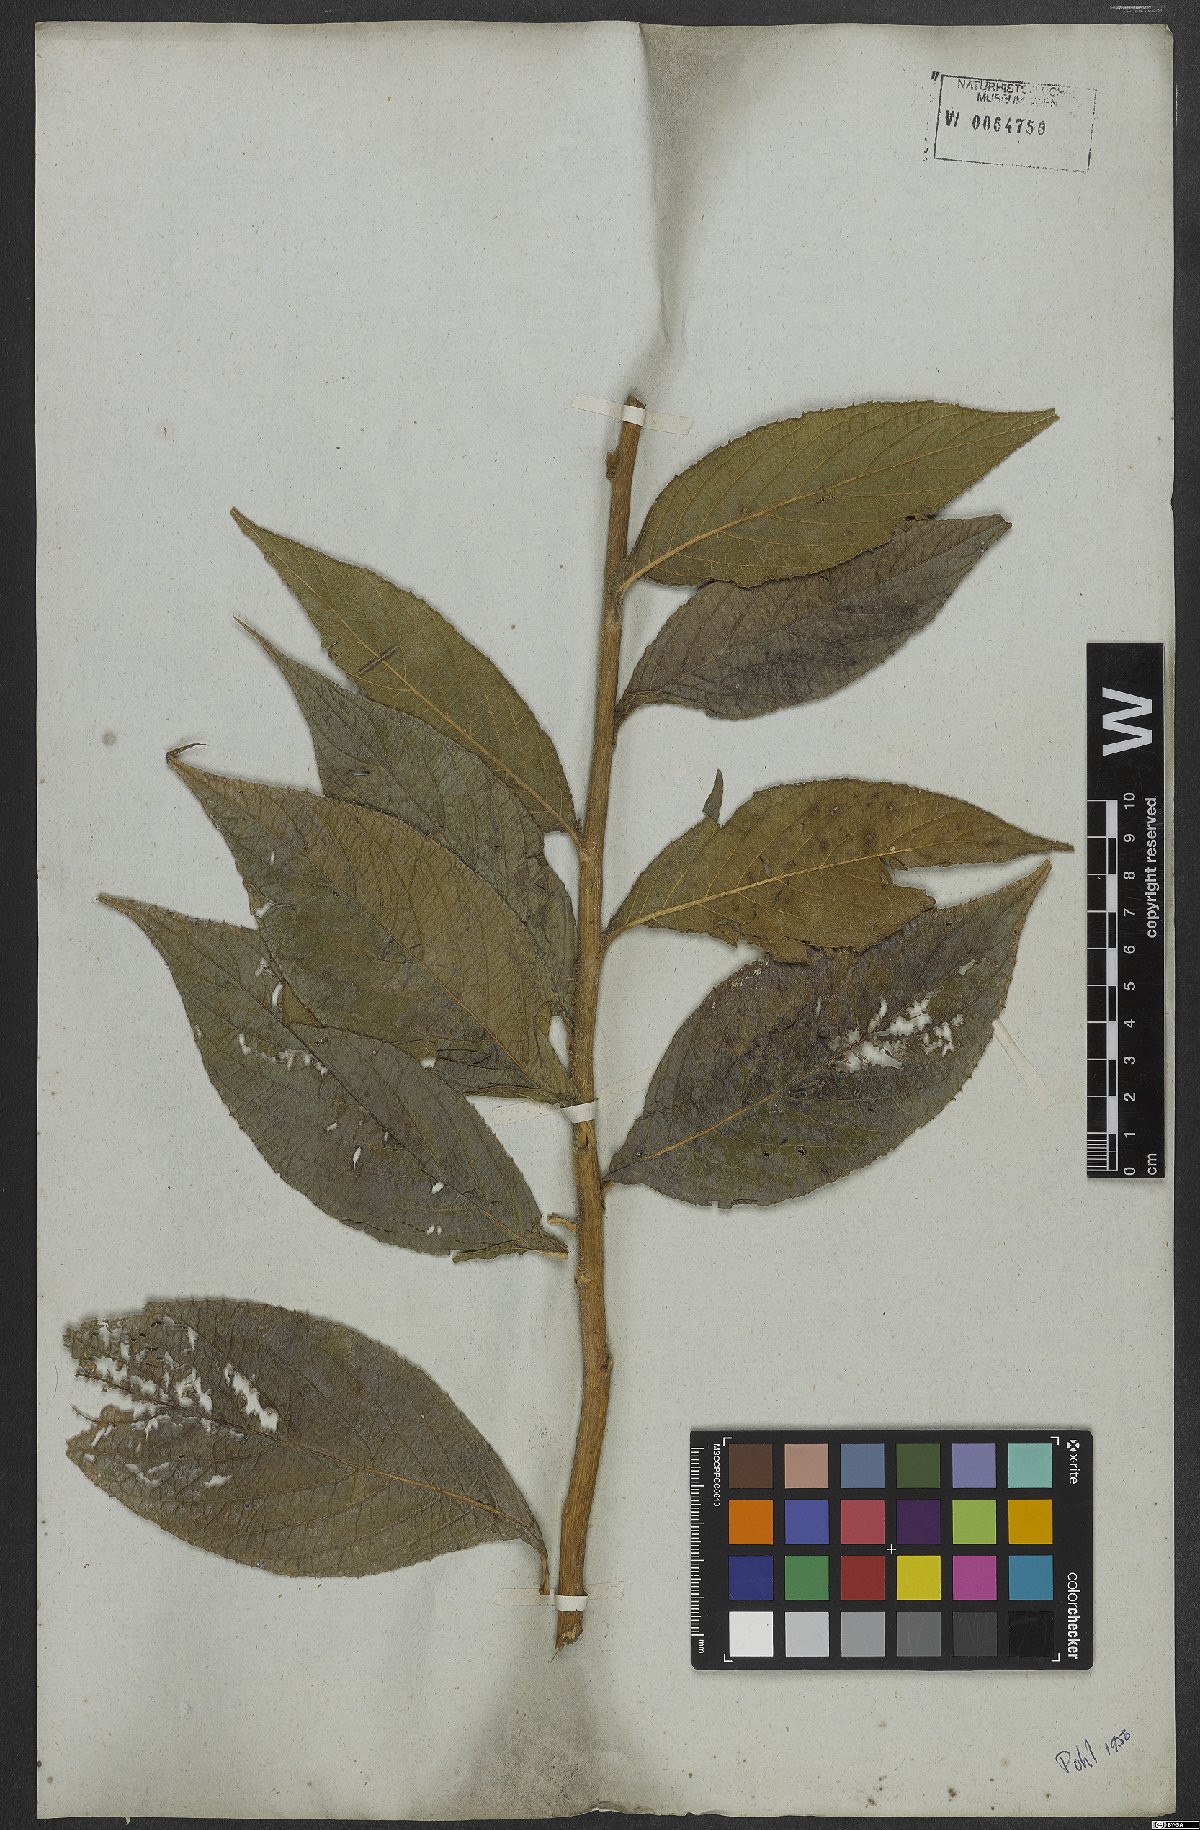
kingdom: Plantae
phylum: Tracheophyta
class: Magnoliopsida
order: Asterales
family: Asteraceae
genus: Lepidaploa
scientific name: Lepidaploa eriolepis
